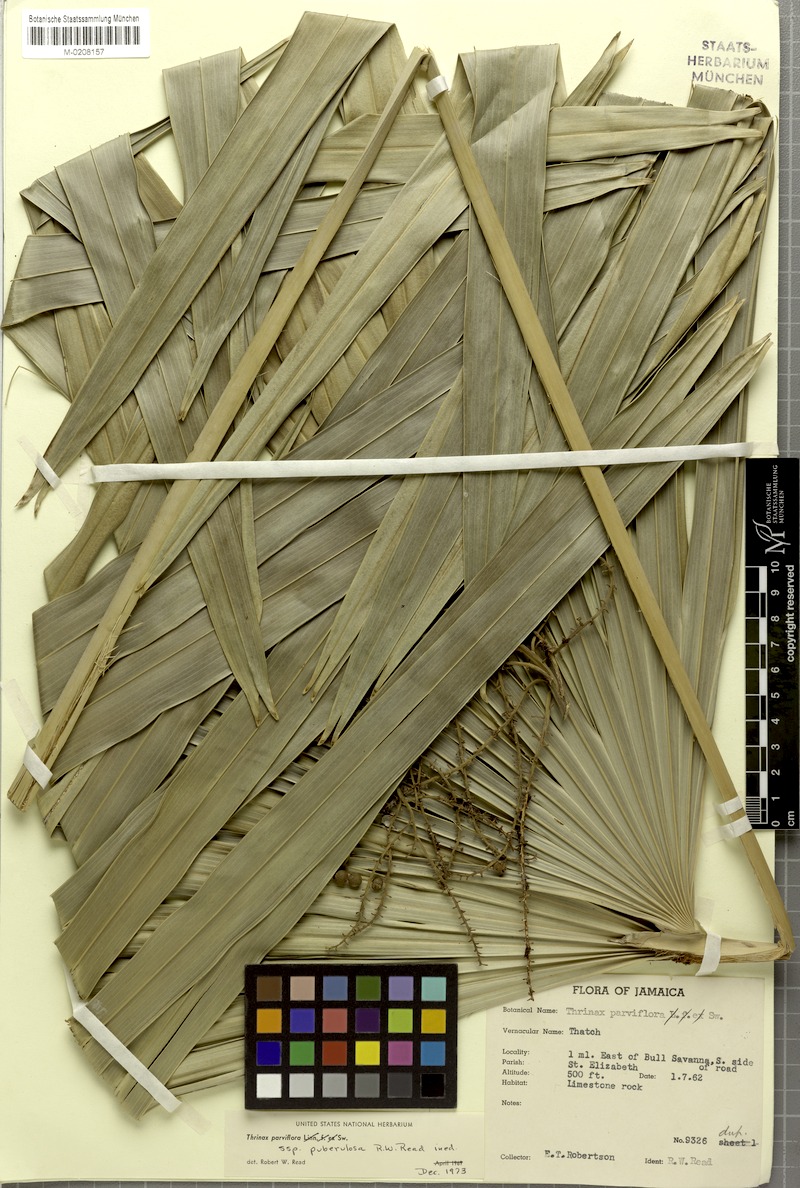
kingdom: Plantae
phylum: Tracheophyta
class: Liliopsida
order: Arecales
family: Arecaceae
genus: Thrinax
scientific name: Thrinax parviflora
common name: Broom palm
